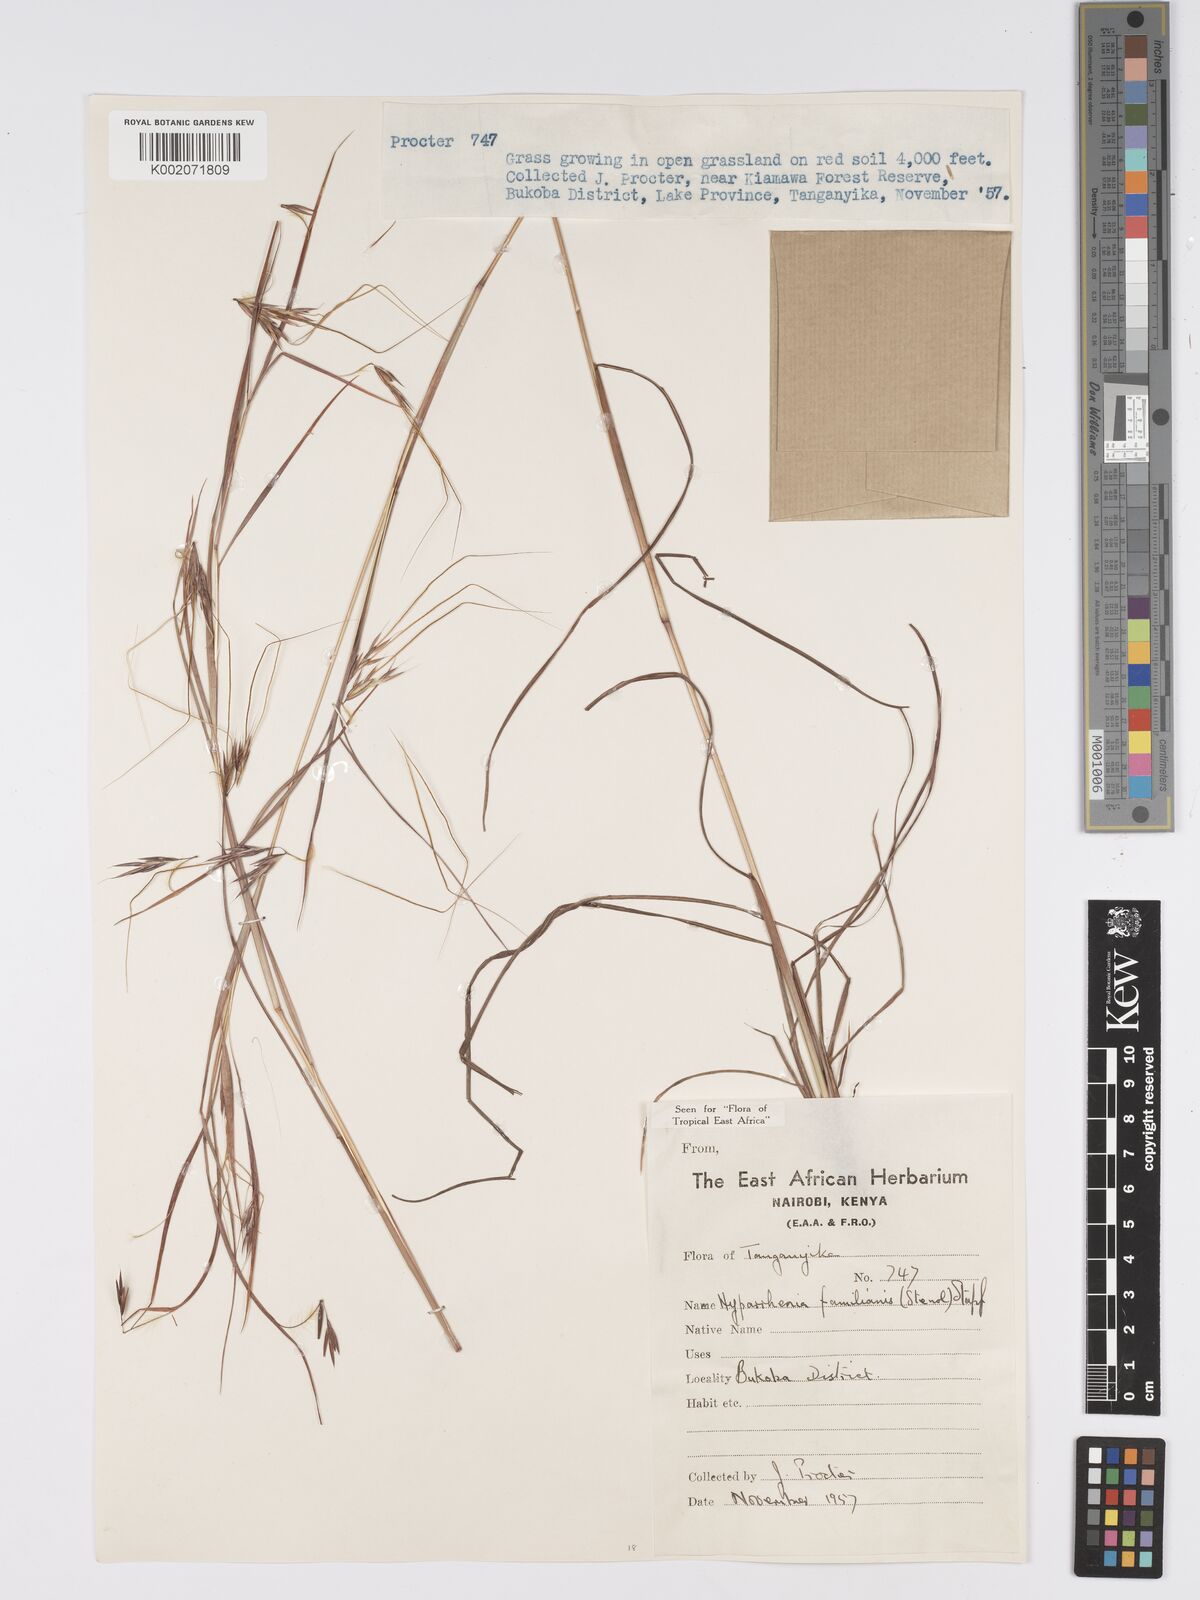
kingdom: Plantae
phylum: Tracheophyta
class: Liliopsida
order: Poales
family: Poaceae
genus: Hyparrhenia
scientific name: Hyparrhenia familiaris
